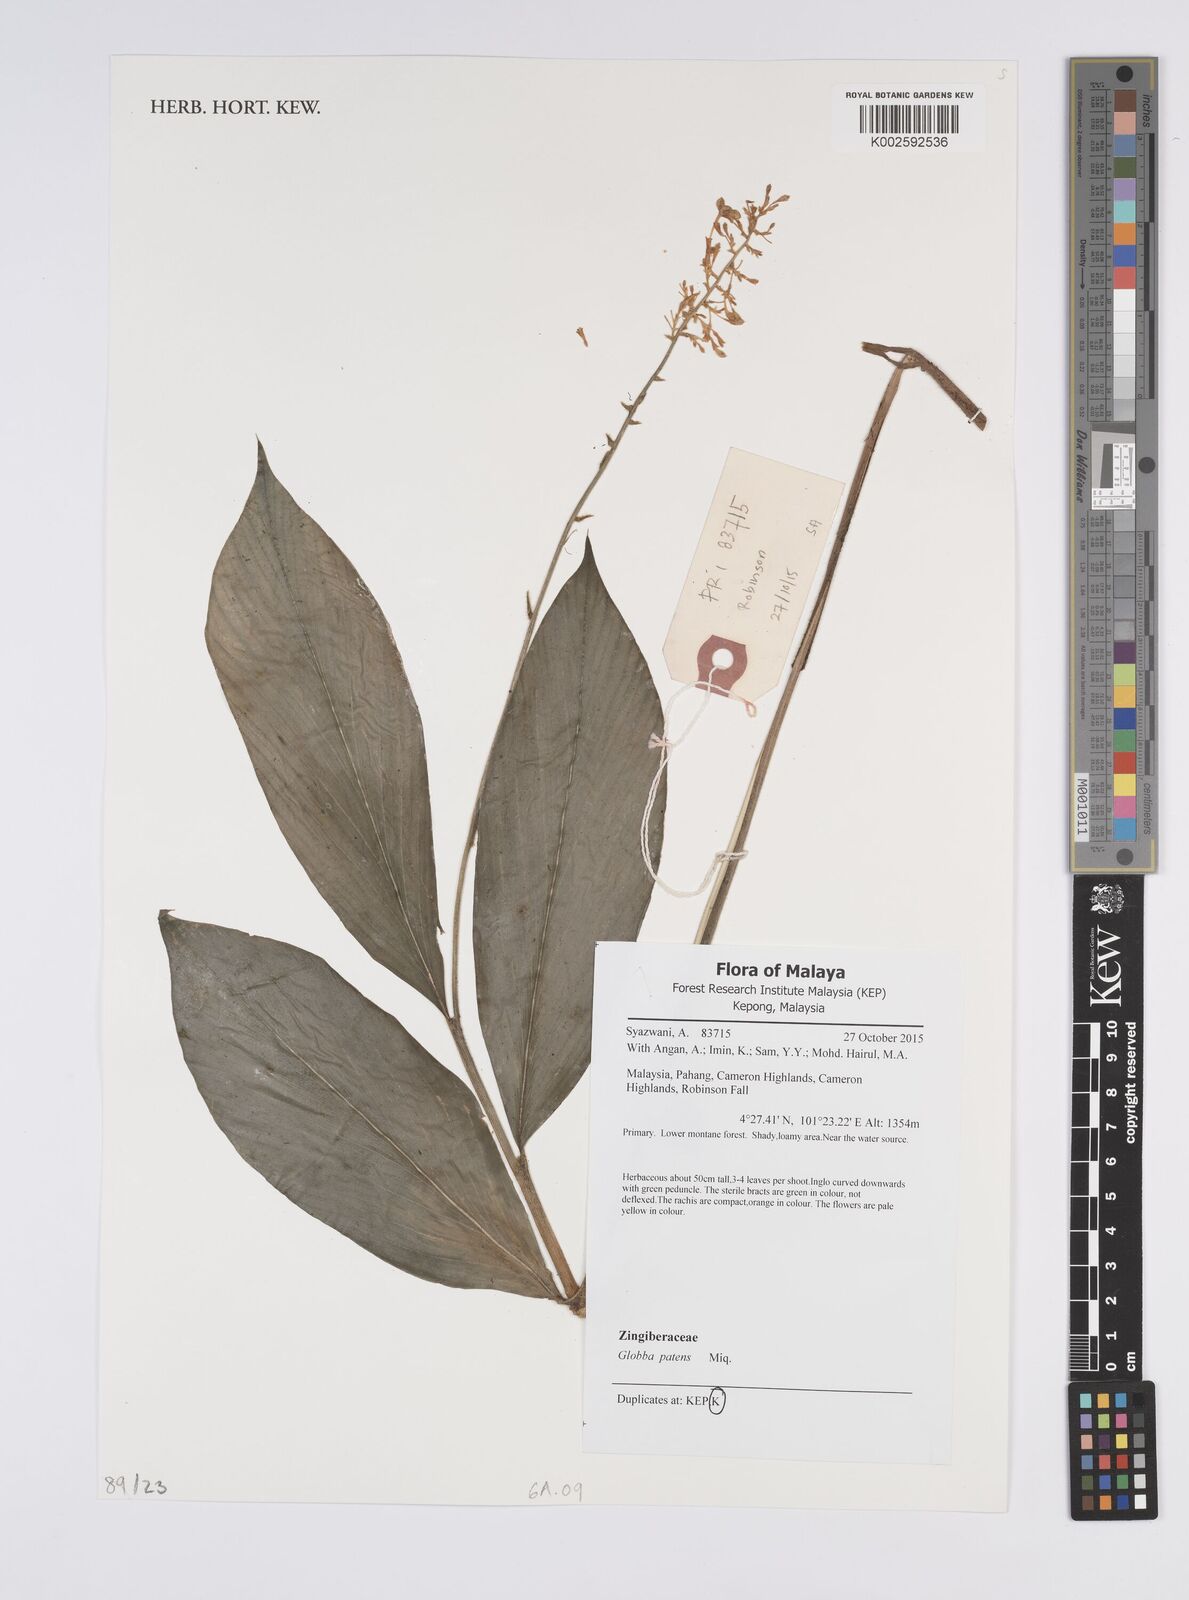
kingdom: Plantae
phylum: Tracheophyta
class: Liliopsida
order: Zingiberales
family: Zingiberaceae
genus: Globba
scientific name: Globba patens
